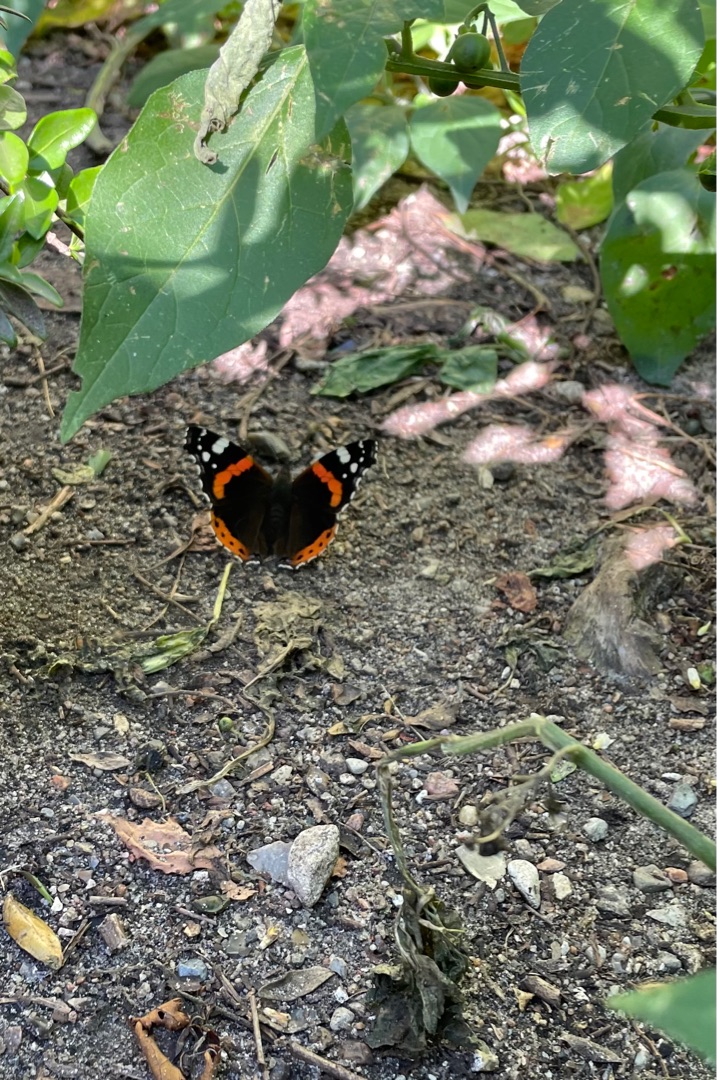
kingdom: Animalia
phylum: Arthropoda
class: Insecta
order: Lepidoptera
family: Nymphalidae
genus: Vanessa
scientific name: Vanessa atalanta
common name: Admiral
